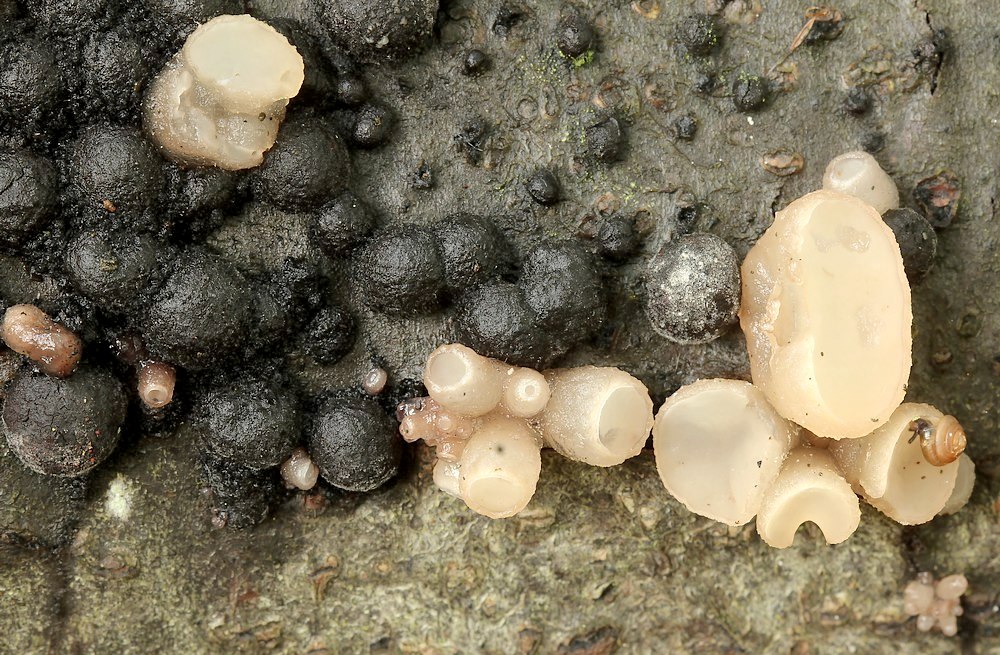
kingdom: Fungi
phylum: Ascomycota
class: Leotiomycetes
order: Helotiales
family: Gelatinodiscaceae
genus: Neobulgaria
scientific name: Neobulgaria pura
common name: bleg bævreskive
